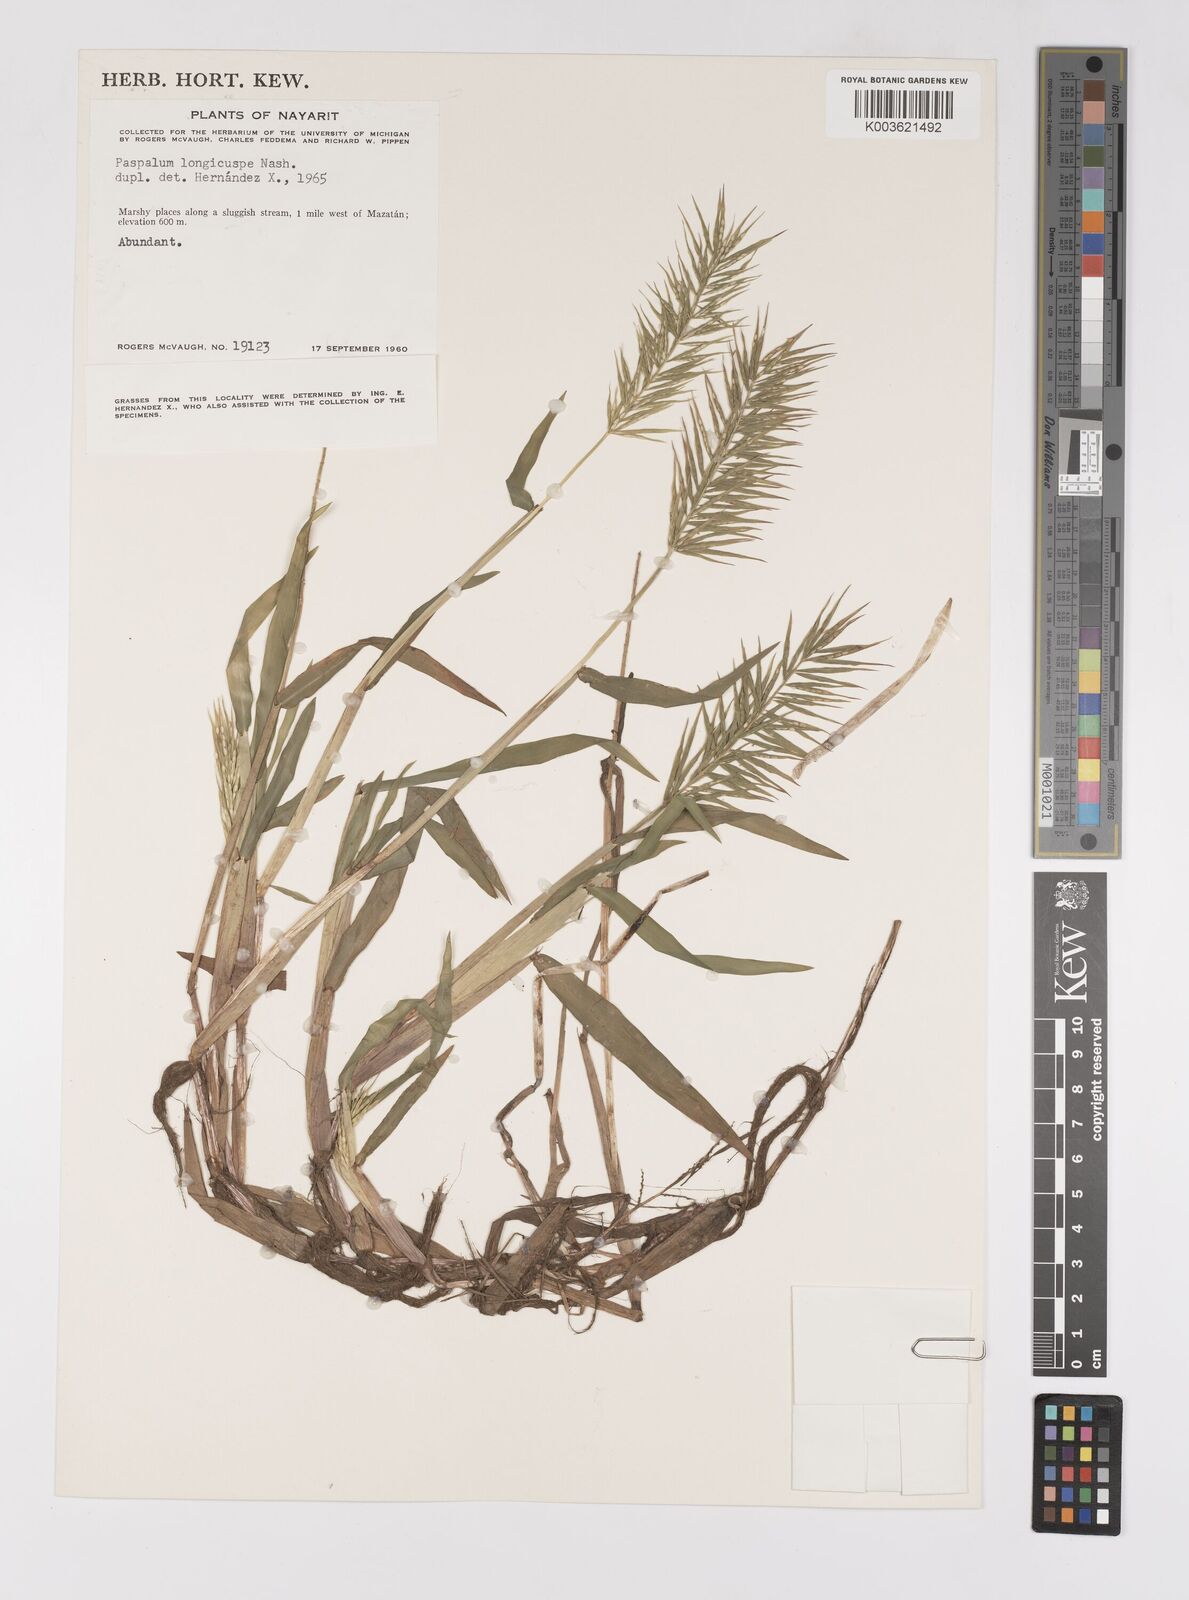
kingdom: Plantae
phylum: Tracheophyta
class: Liliopsida
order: Poales
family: Poaceae
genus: Paspalum
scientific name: Paspalum longicuspe
